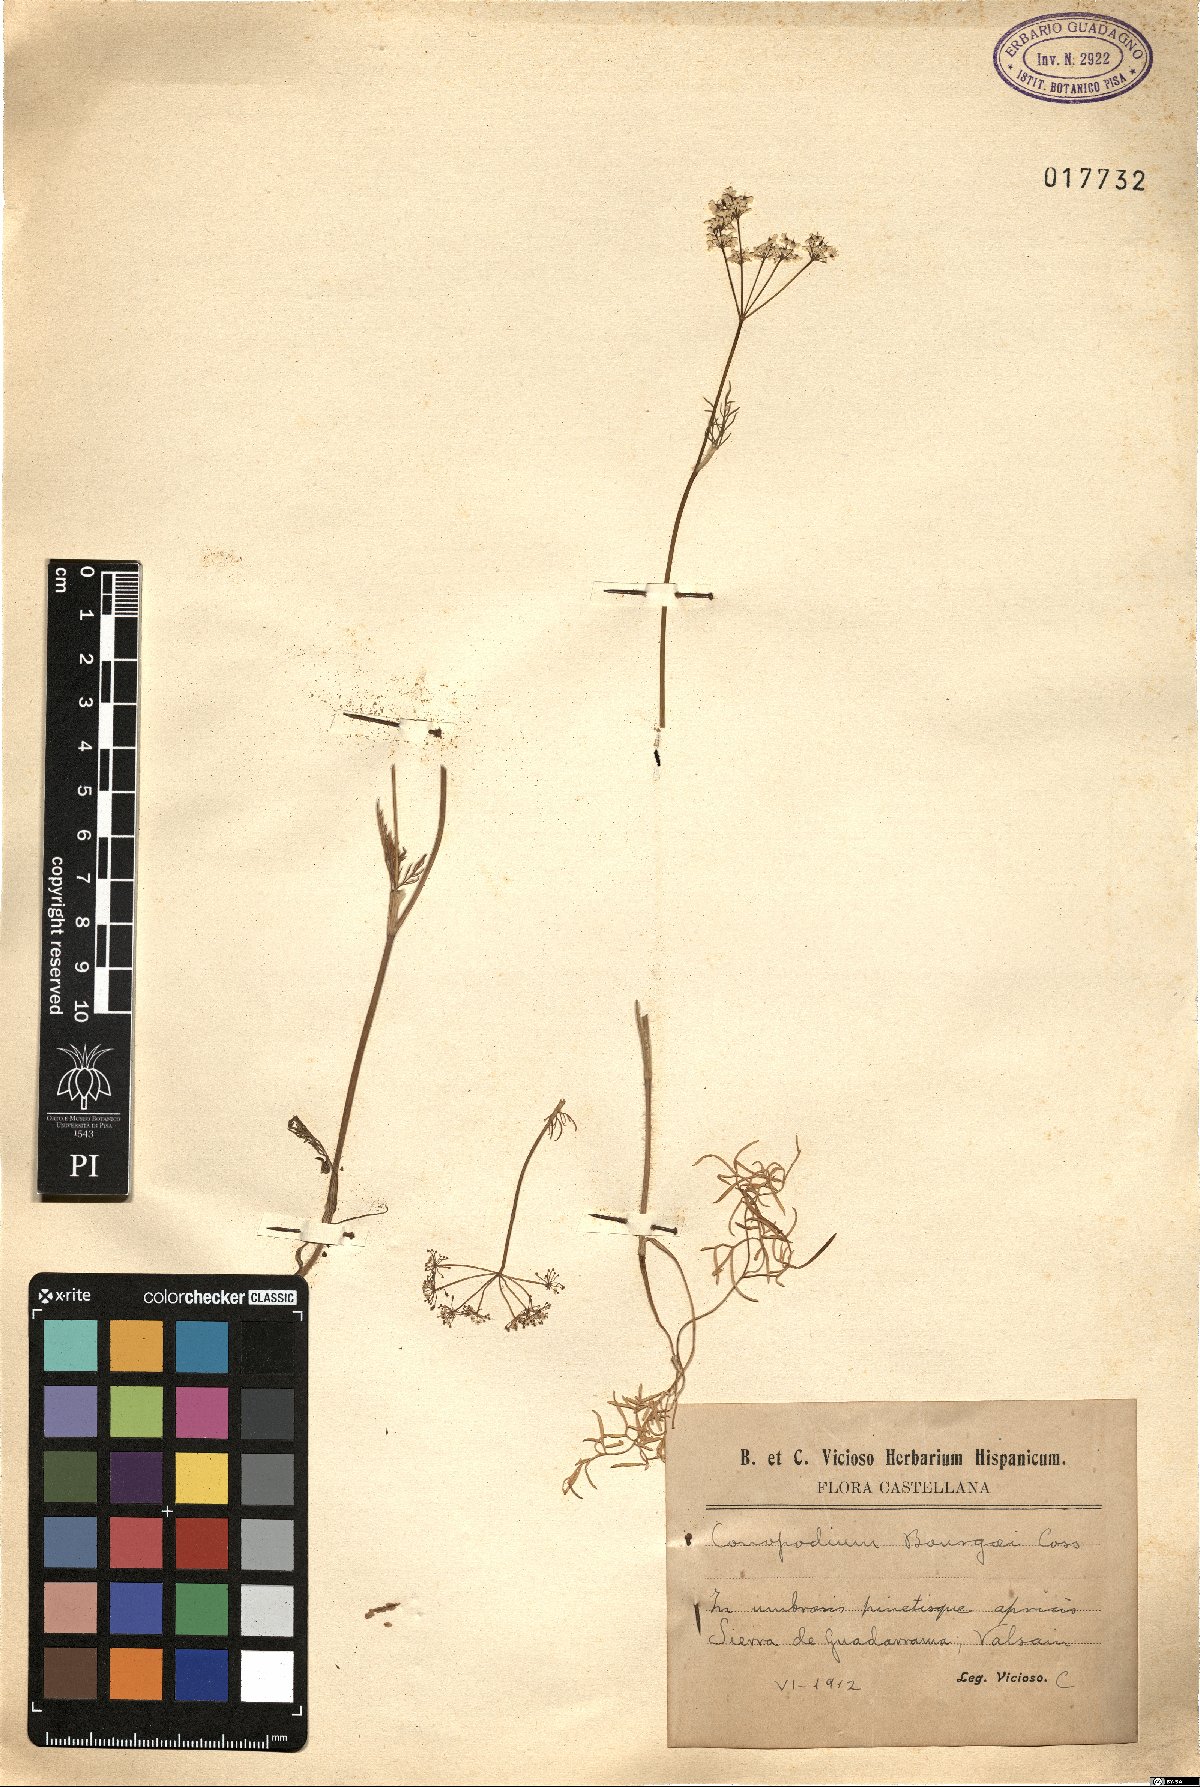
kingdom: Plantae
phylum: Tracheophyta
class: Magnoliopsida
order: Apiales
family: Apiaceae
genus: Conopodium
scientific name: Conopodium pyrenaeum
